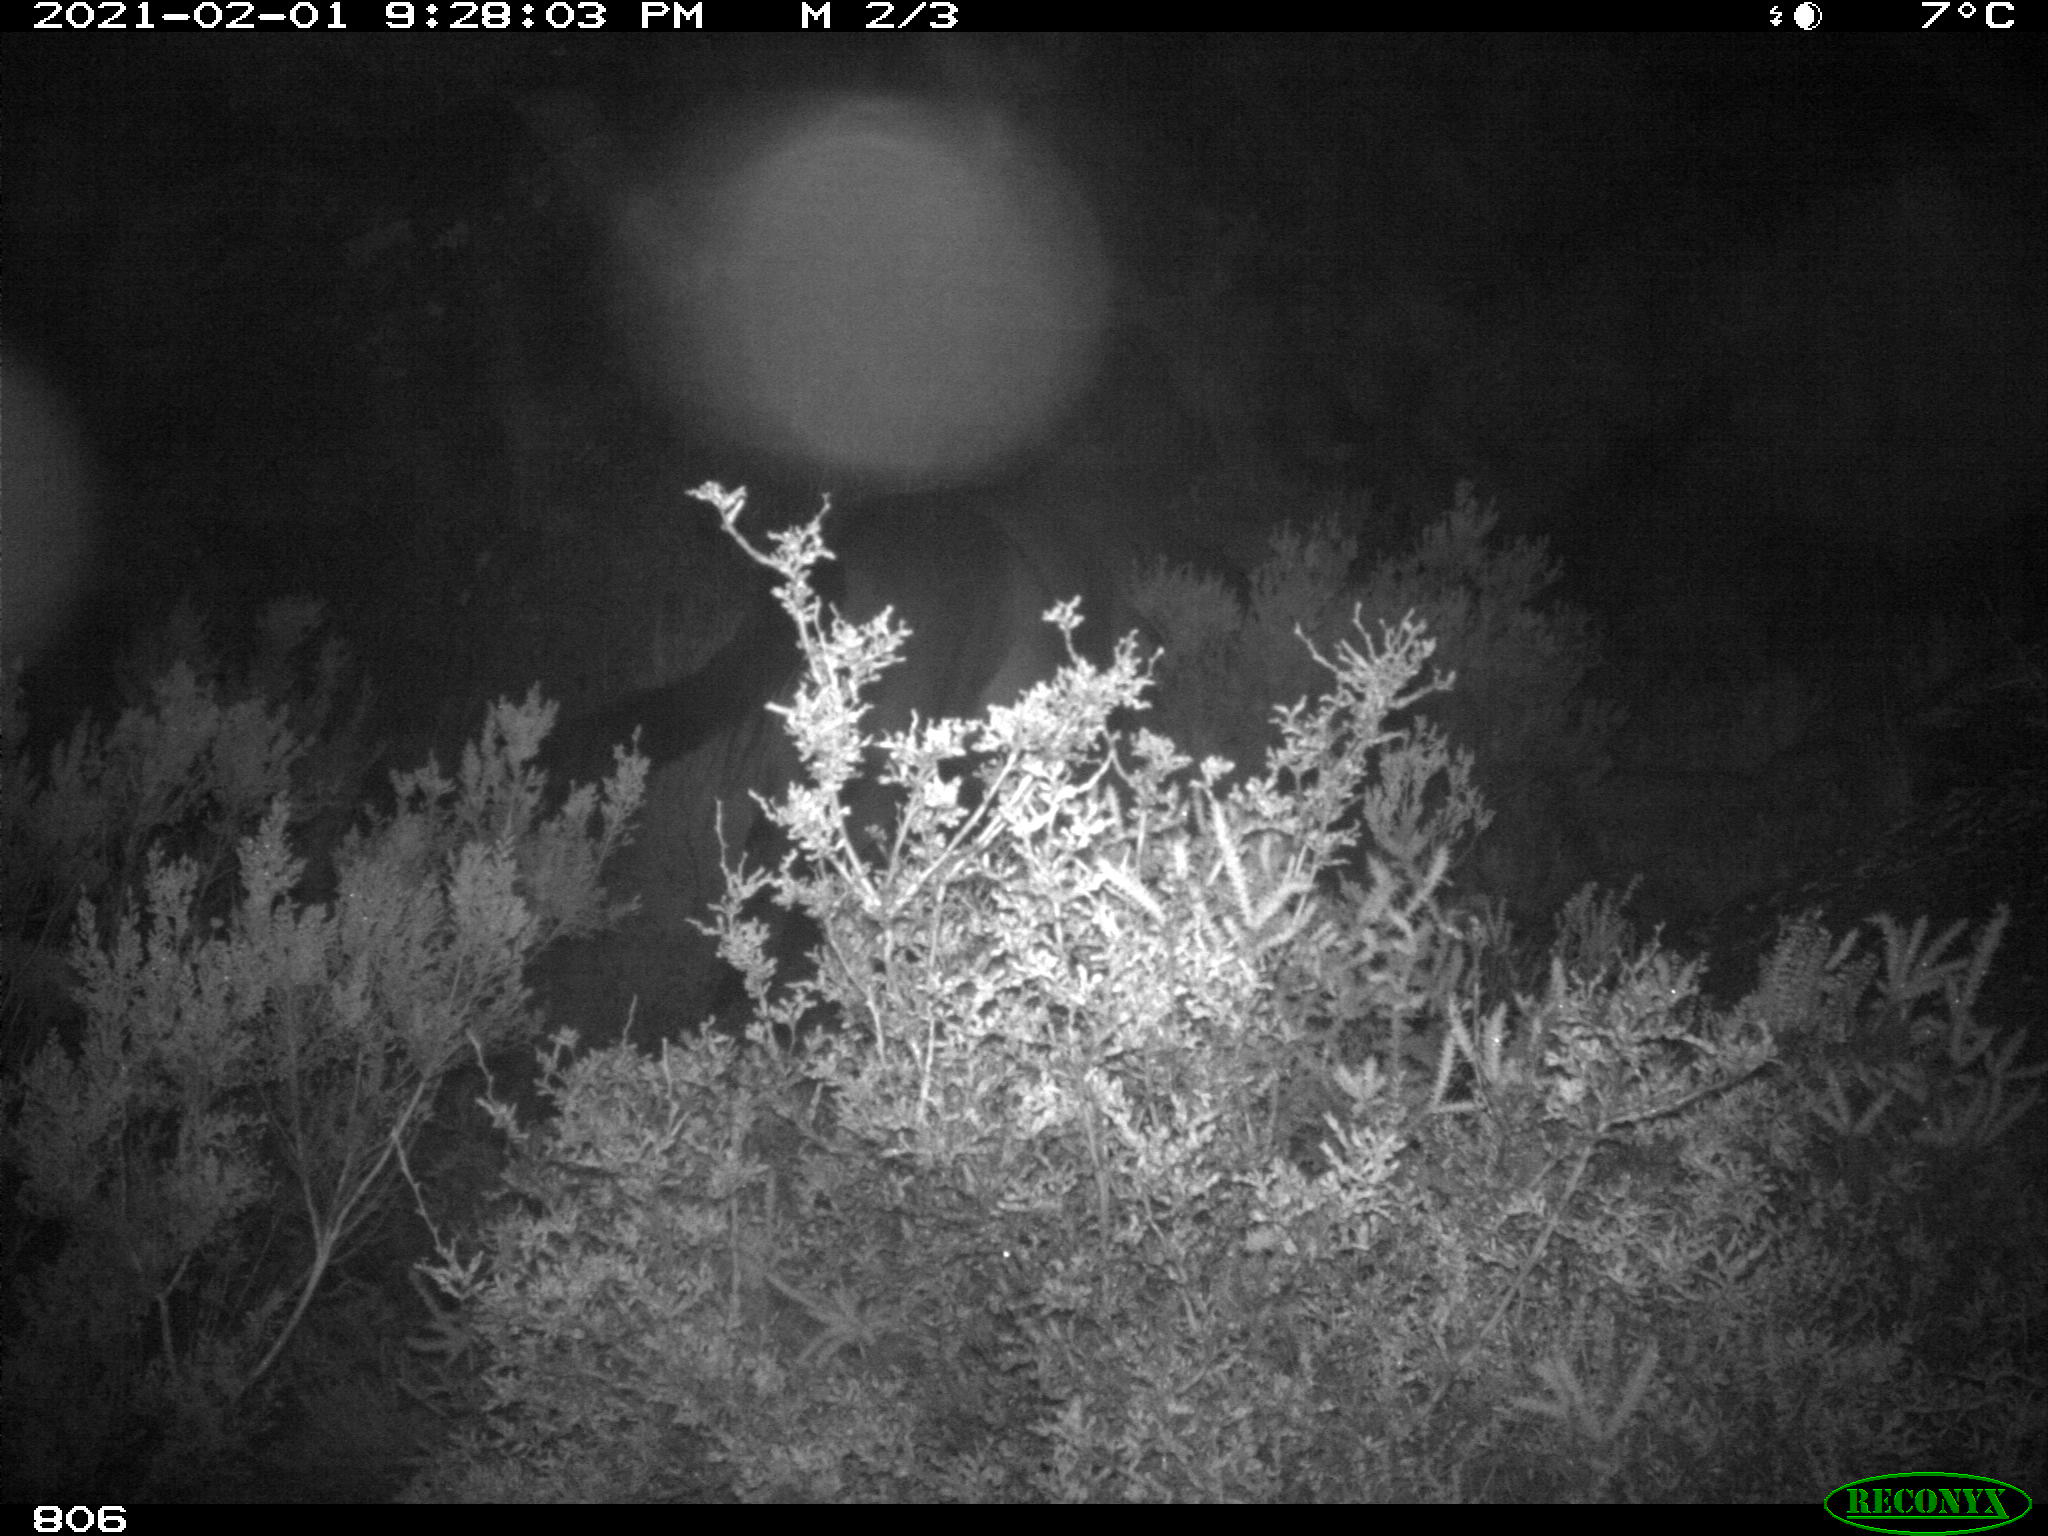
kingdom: Animalia
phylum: Chordata
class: Mammalia
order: Perissodactyla
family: Equidae
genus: Equus
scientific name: Equus caballus
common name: Horse
